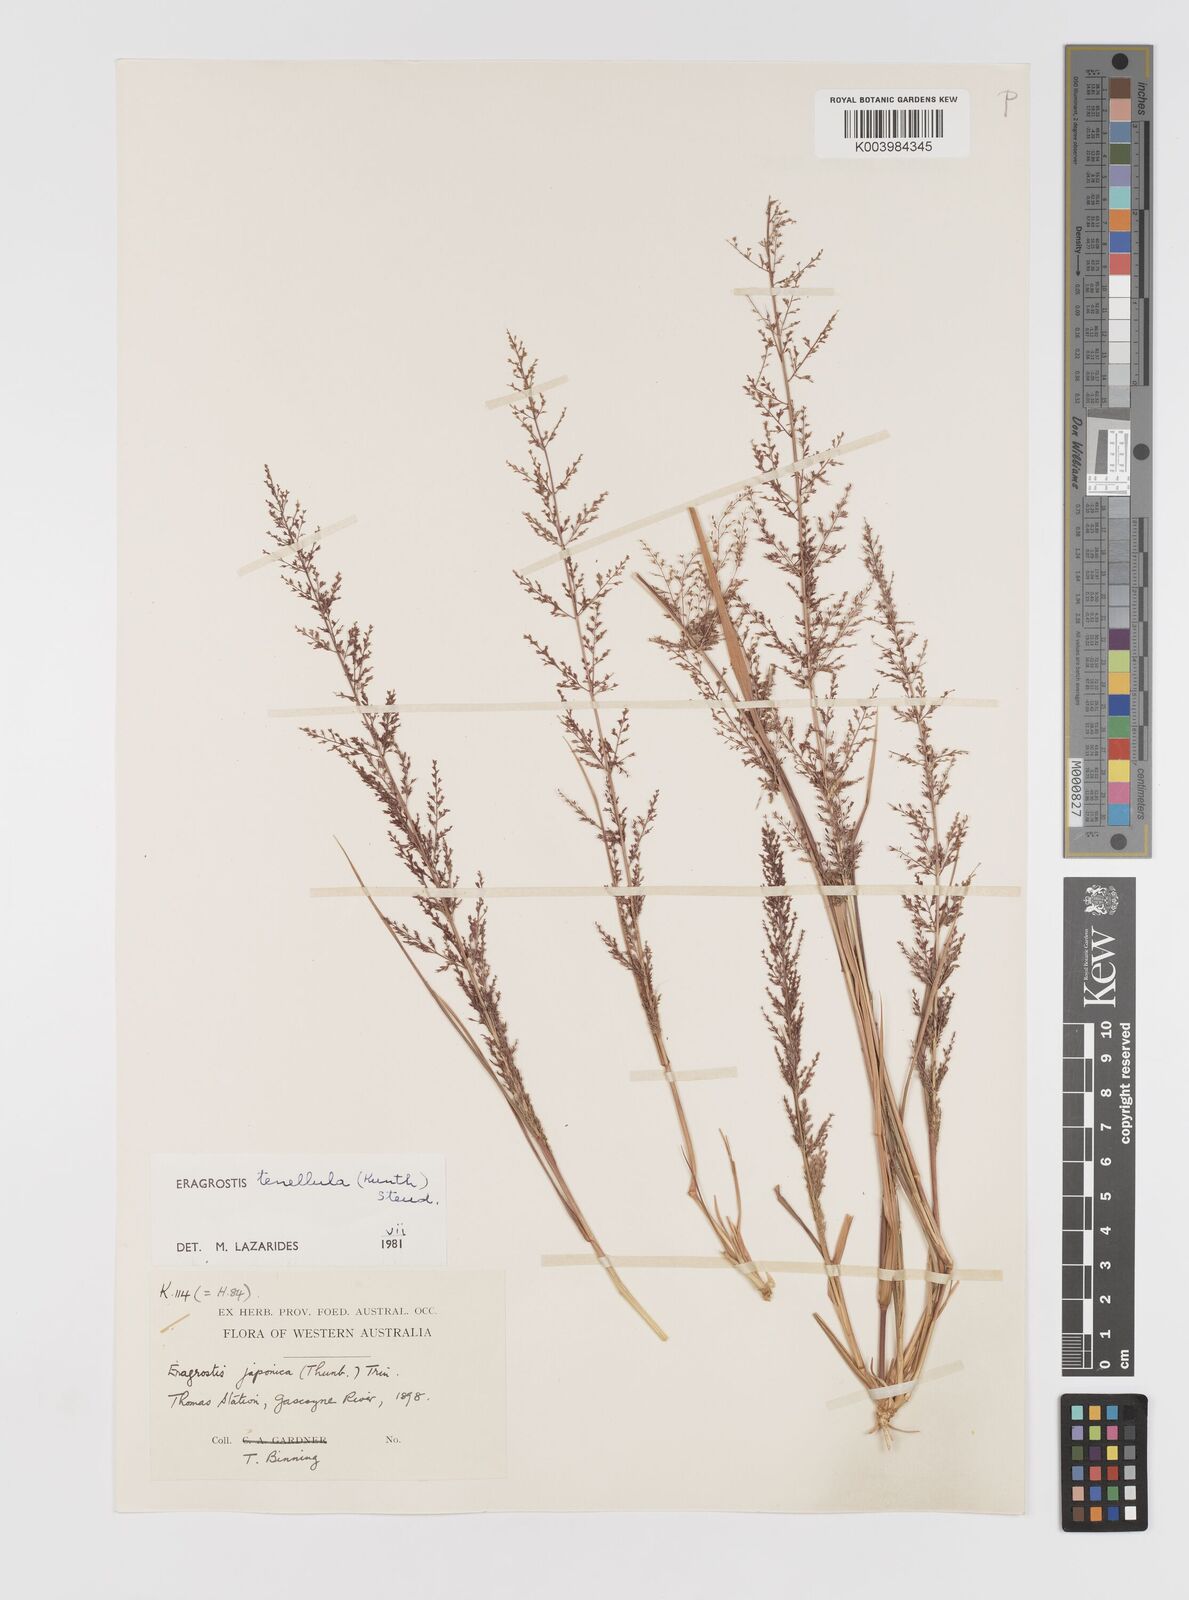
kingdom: Plantae
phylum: Tracheophyta
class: Liliopsida
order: Poales
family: Poaceae
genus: Eragrostis
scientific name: Eragrostis tenellula
